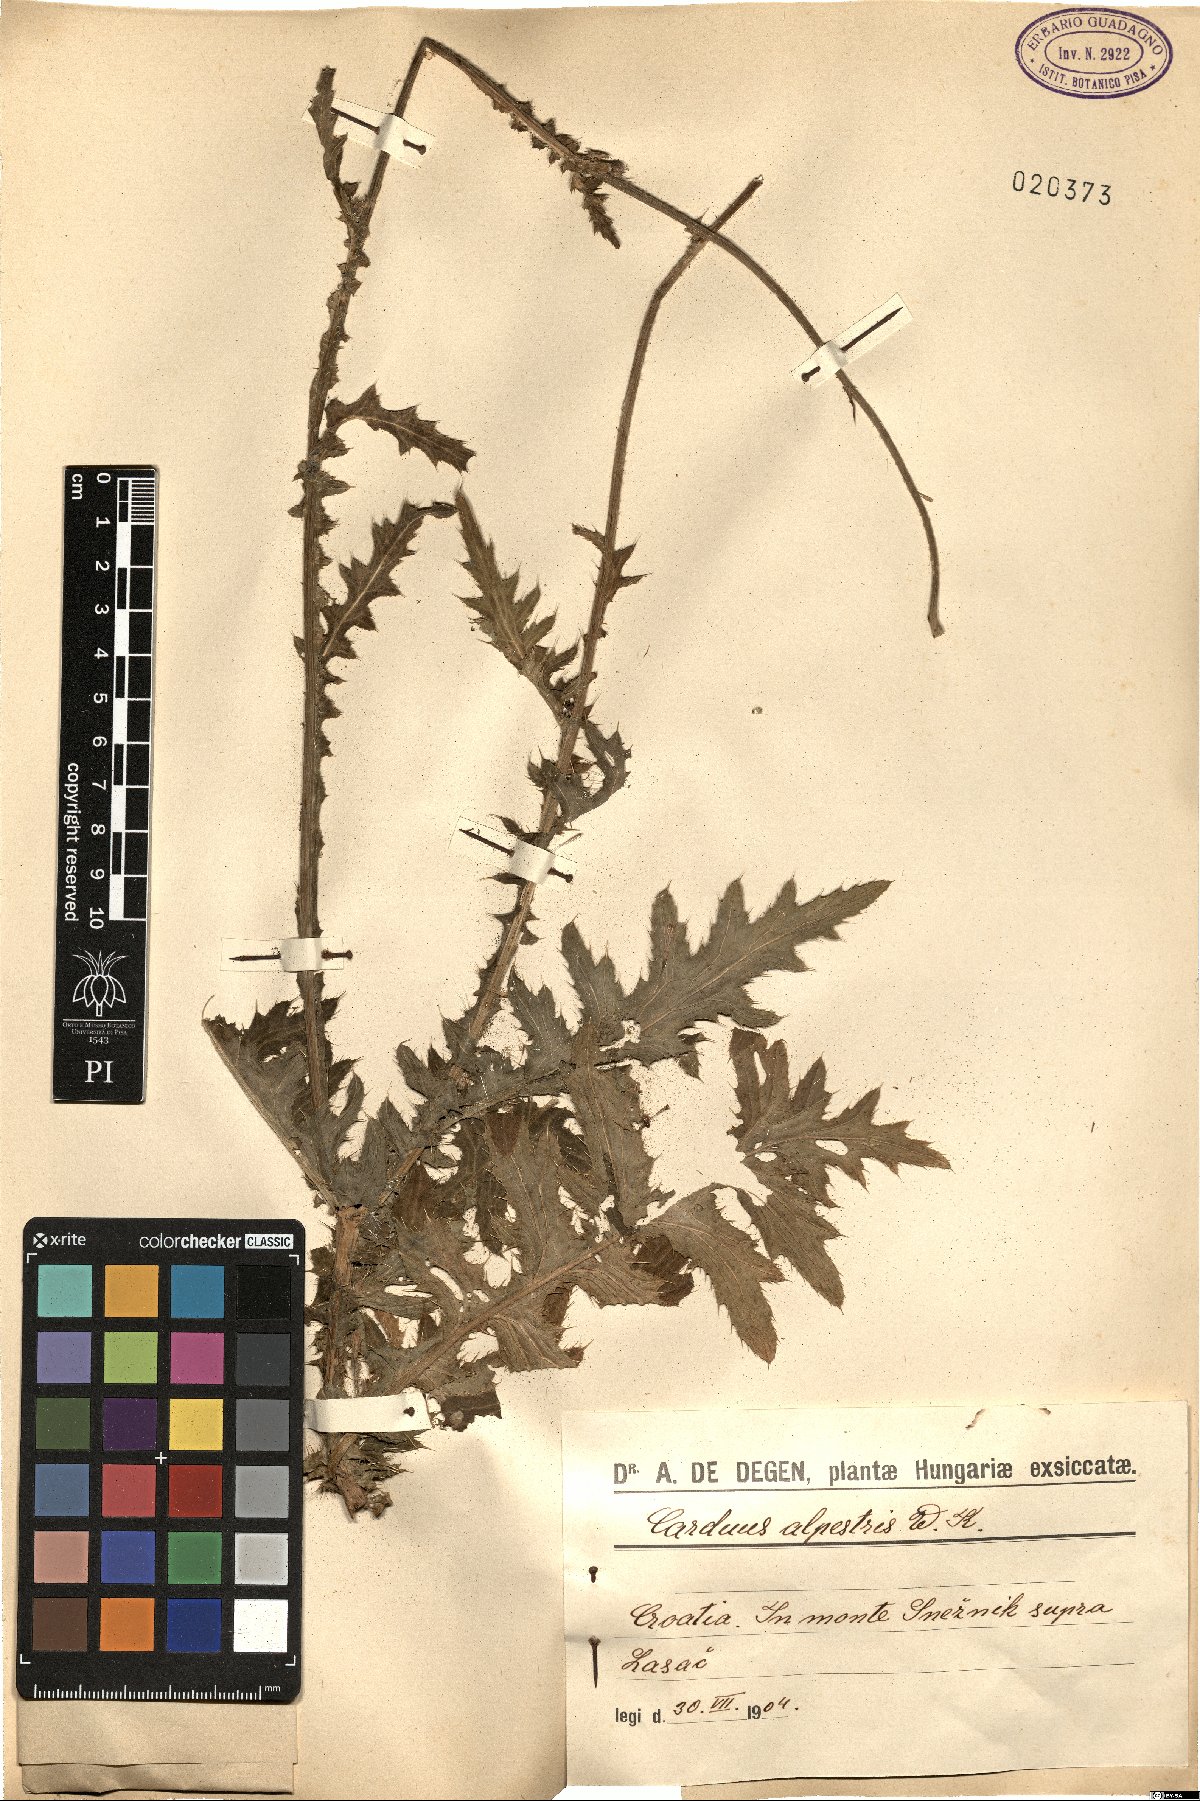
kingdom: Plantae
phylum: Tracheophyta
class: Magnoliopsida
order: Asterales
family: Asteraceae
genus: Carduus
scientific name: Carduus carduelis
